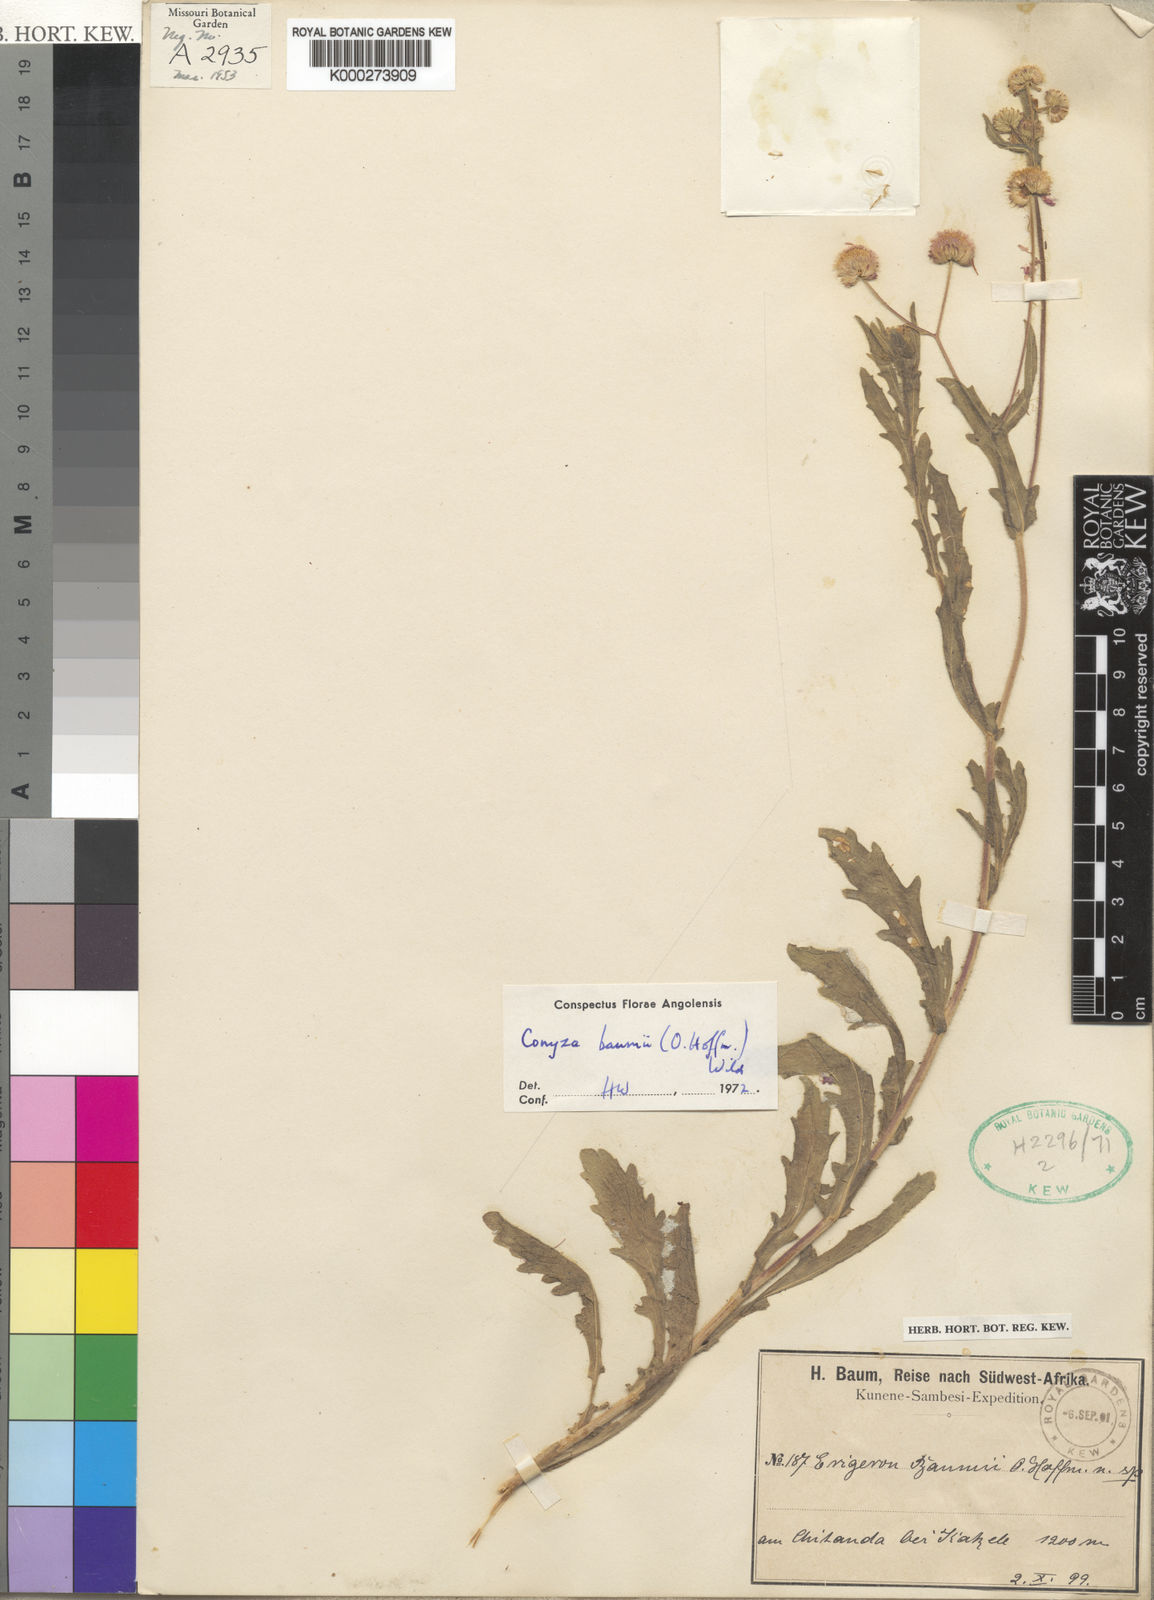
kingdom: Plantae
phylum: Tracheophyta
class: Magnoliopsida
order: Asterales
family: Asteraceae
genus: Conyza
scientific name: Conyza baumii
